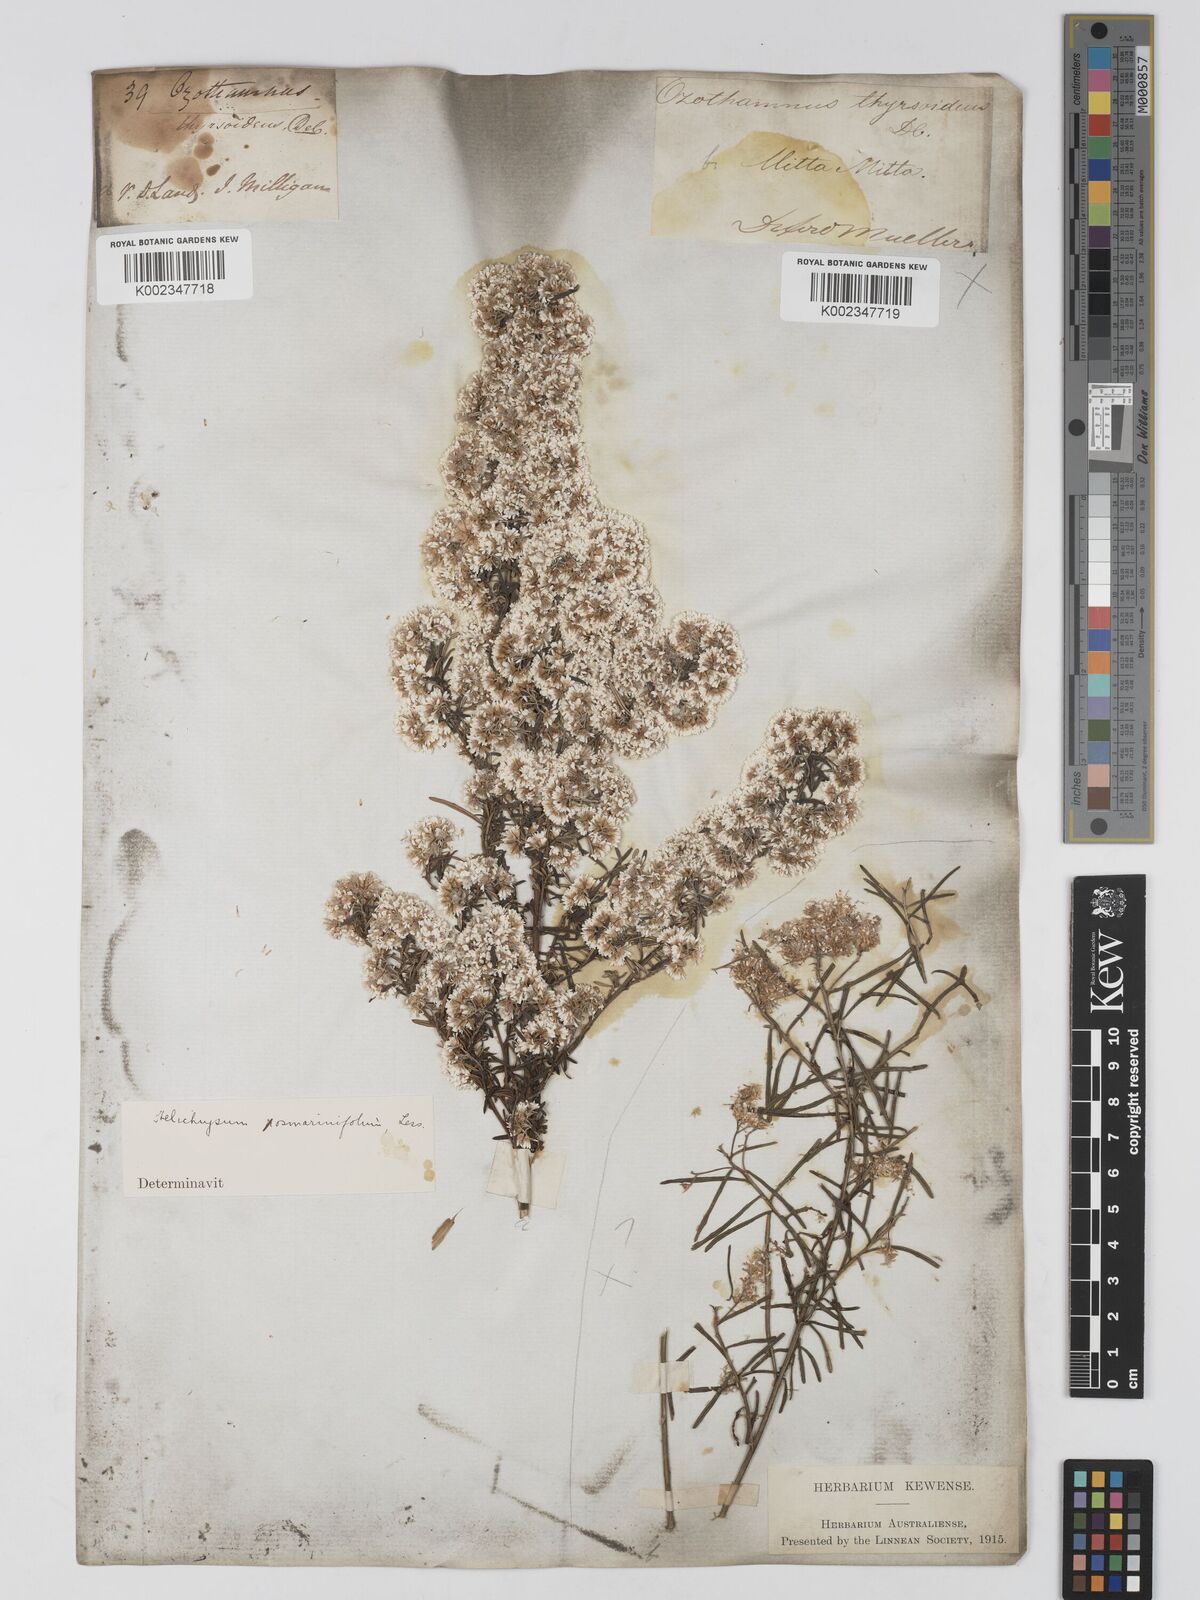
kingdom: Plantae
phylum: Tracheophyta
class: Magnoliopsida
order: Asterales
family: Asteraceae
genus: Ozothamnus
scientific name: Ozothamnus thyrsoideus
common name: Snow-in-summer
